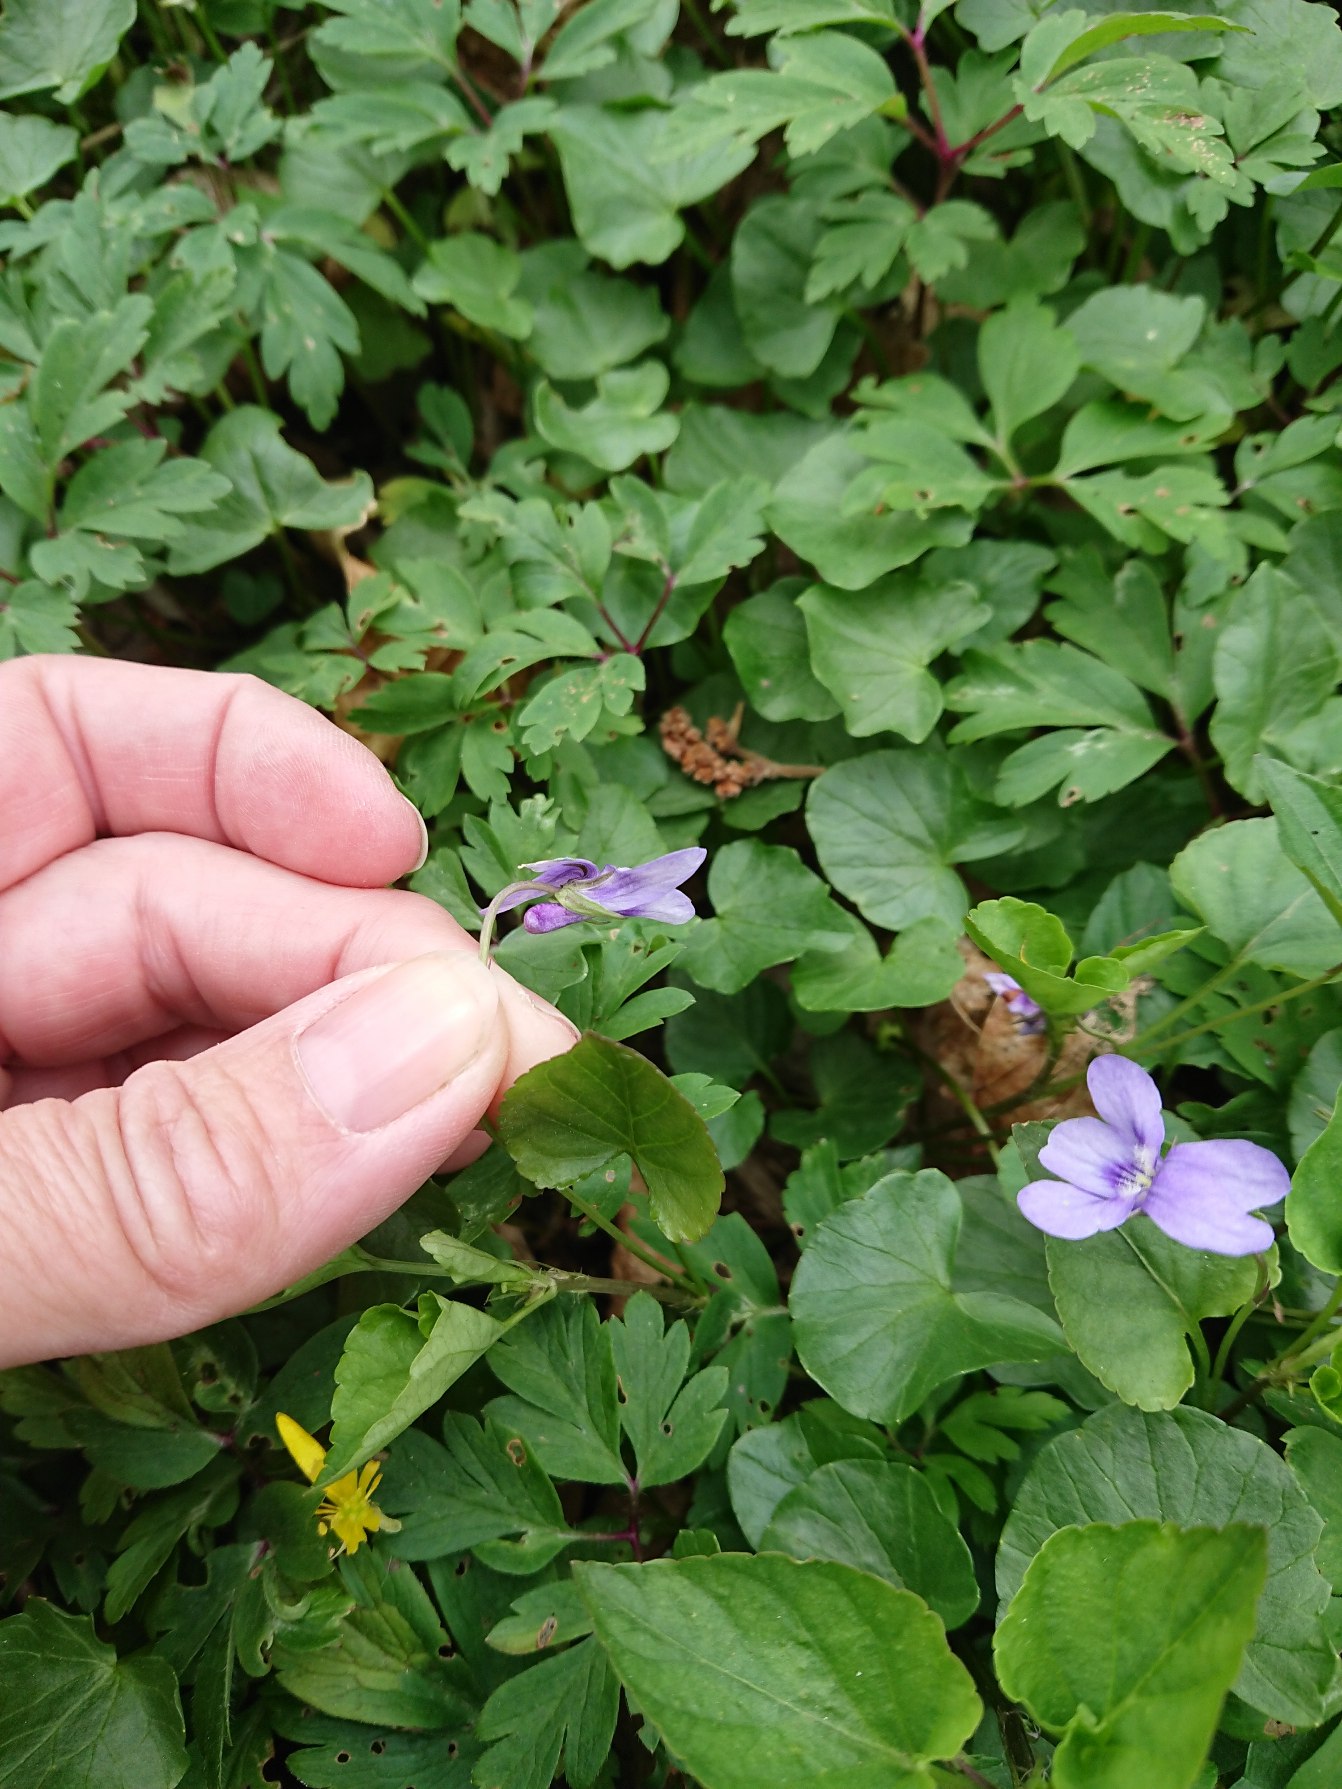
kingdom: Plantae
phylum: Tracheophyta
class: Magnoliopsida
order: Malpighiales
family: Violaceae
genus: Viola
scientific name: Viola reichenbachiana
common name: Skov-viol
